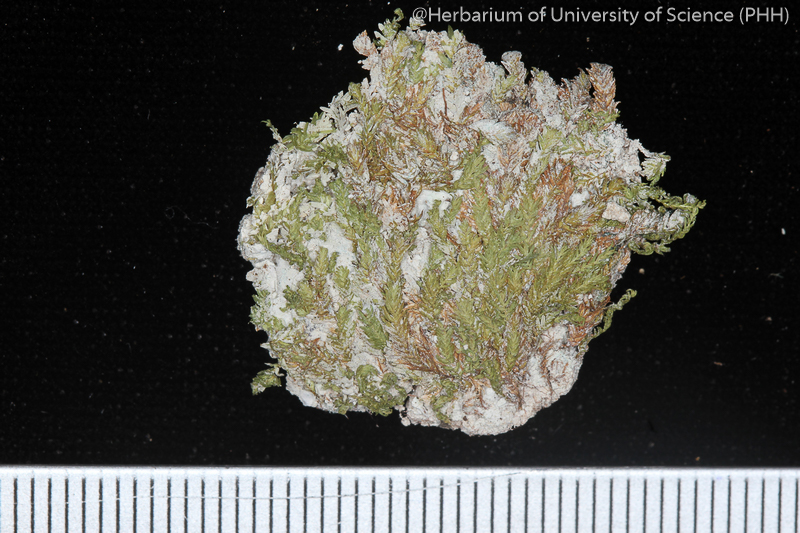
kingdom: Plantae
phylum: Bryophyta
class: Bryopsida
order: Dicranales
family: Fissidentaceae
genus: Fissidens
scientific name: Fissidens crispulus
